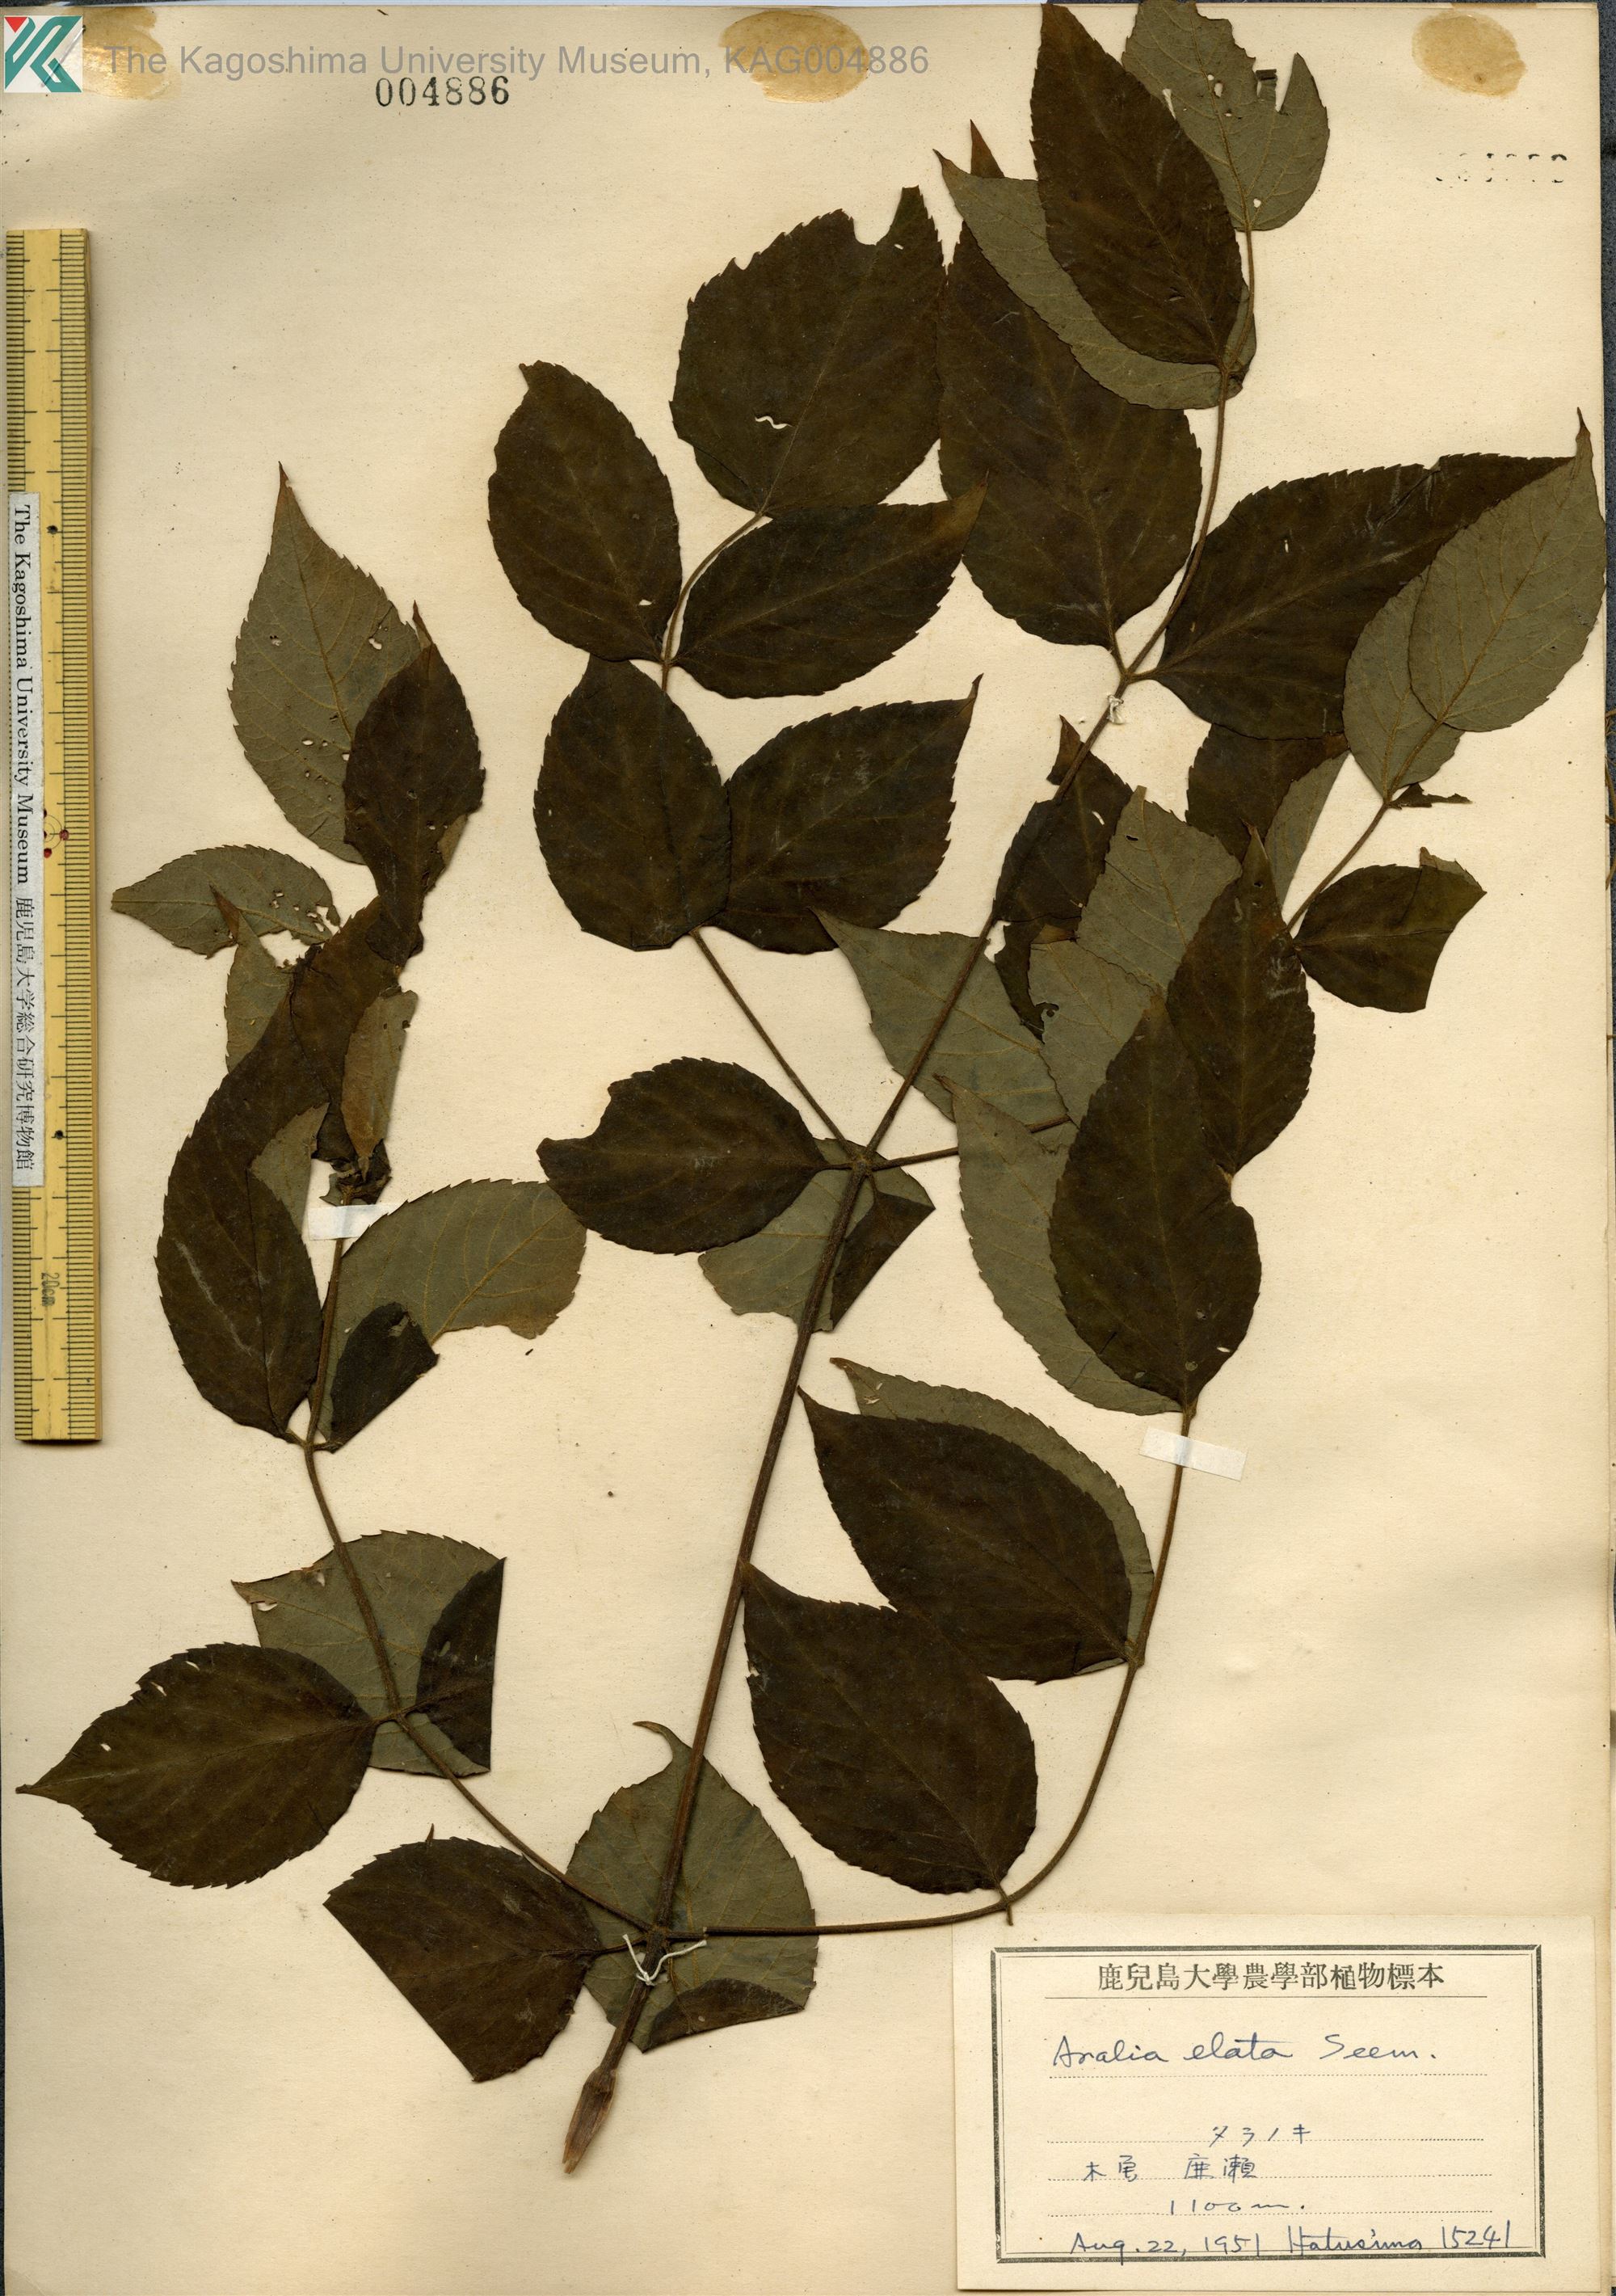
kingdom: Plantae
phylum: Tracheophyta
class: Magnoliopsida
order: Apiales
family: Araliaceae
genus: Aralia
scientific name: Aralia elata
